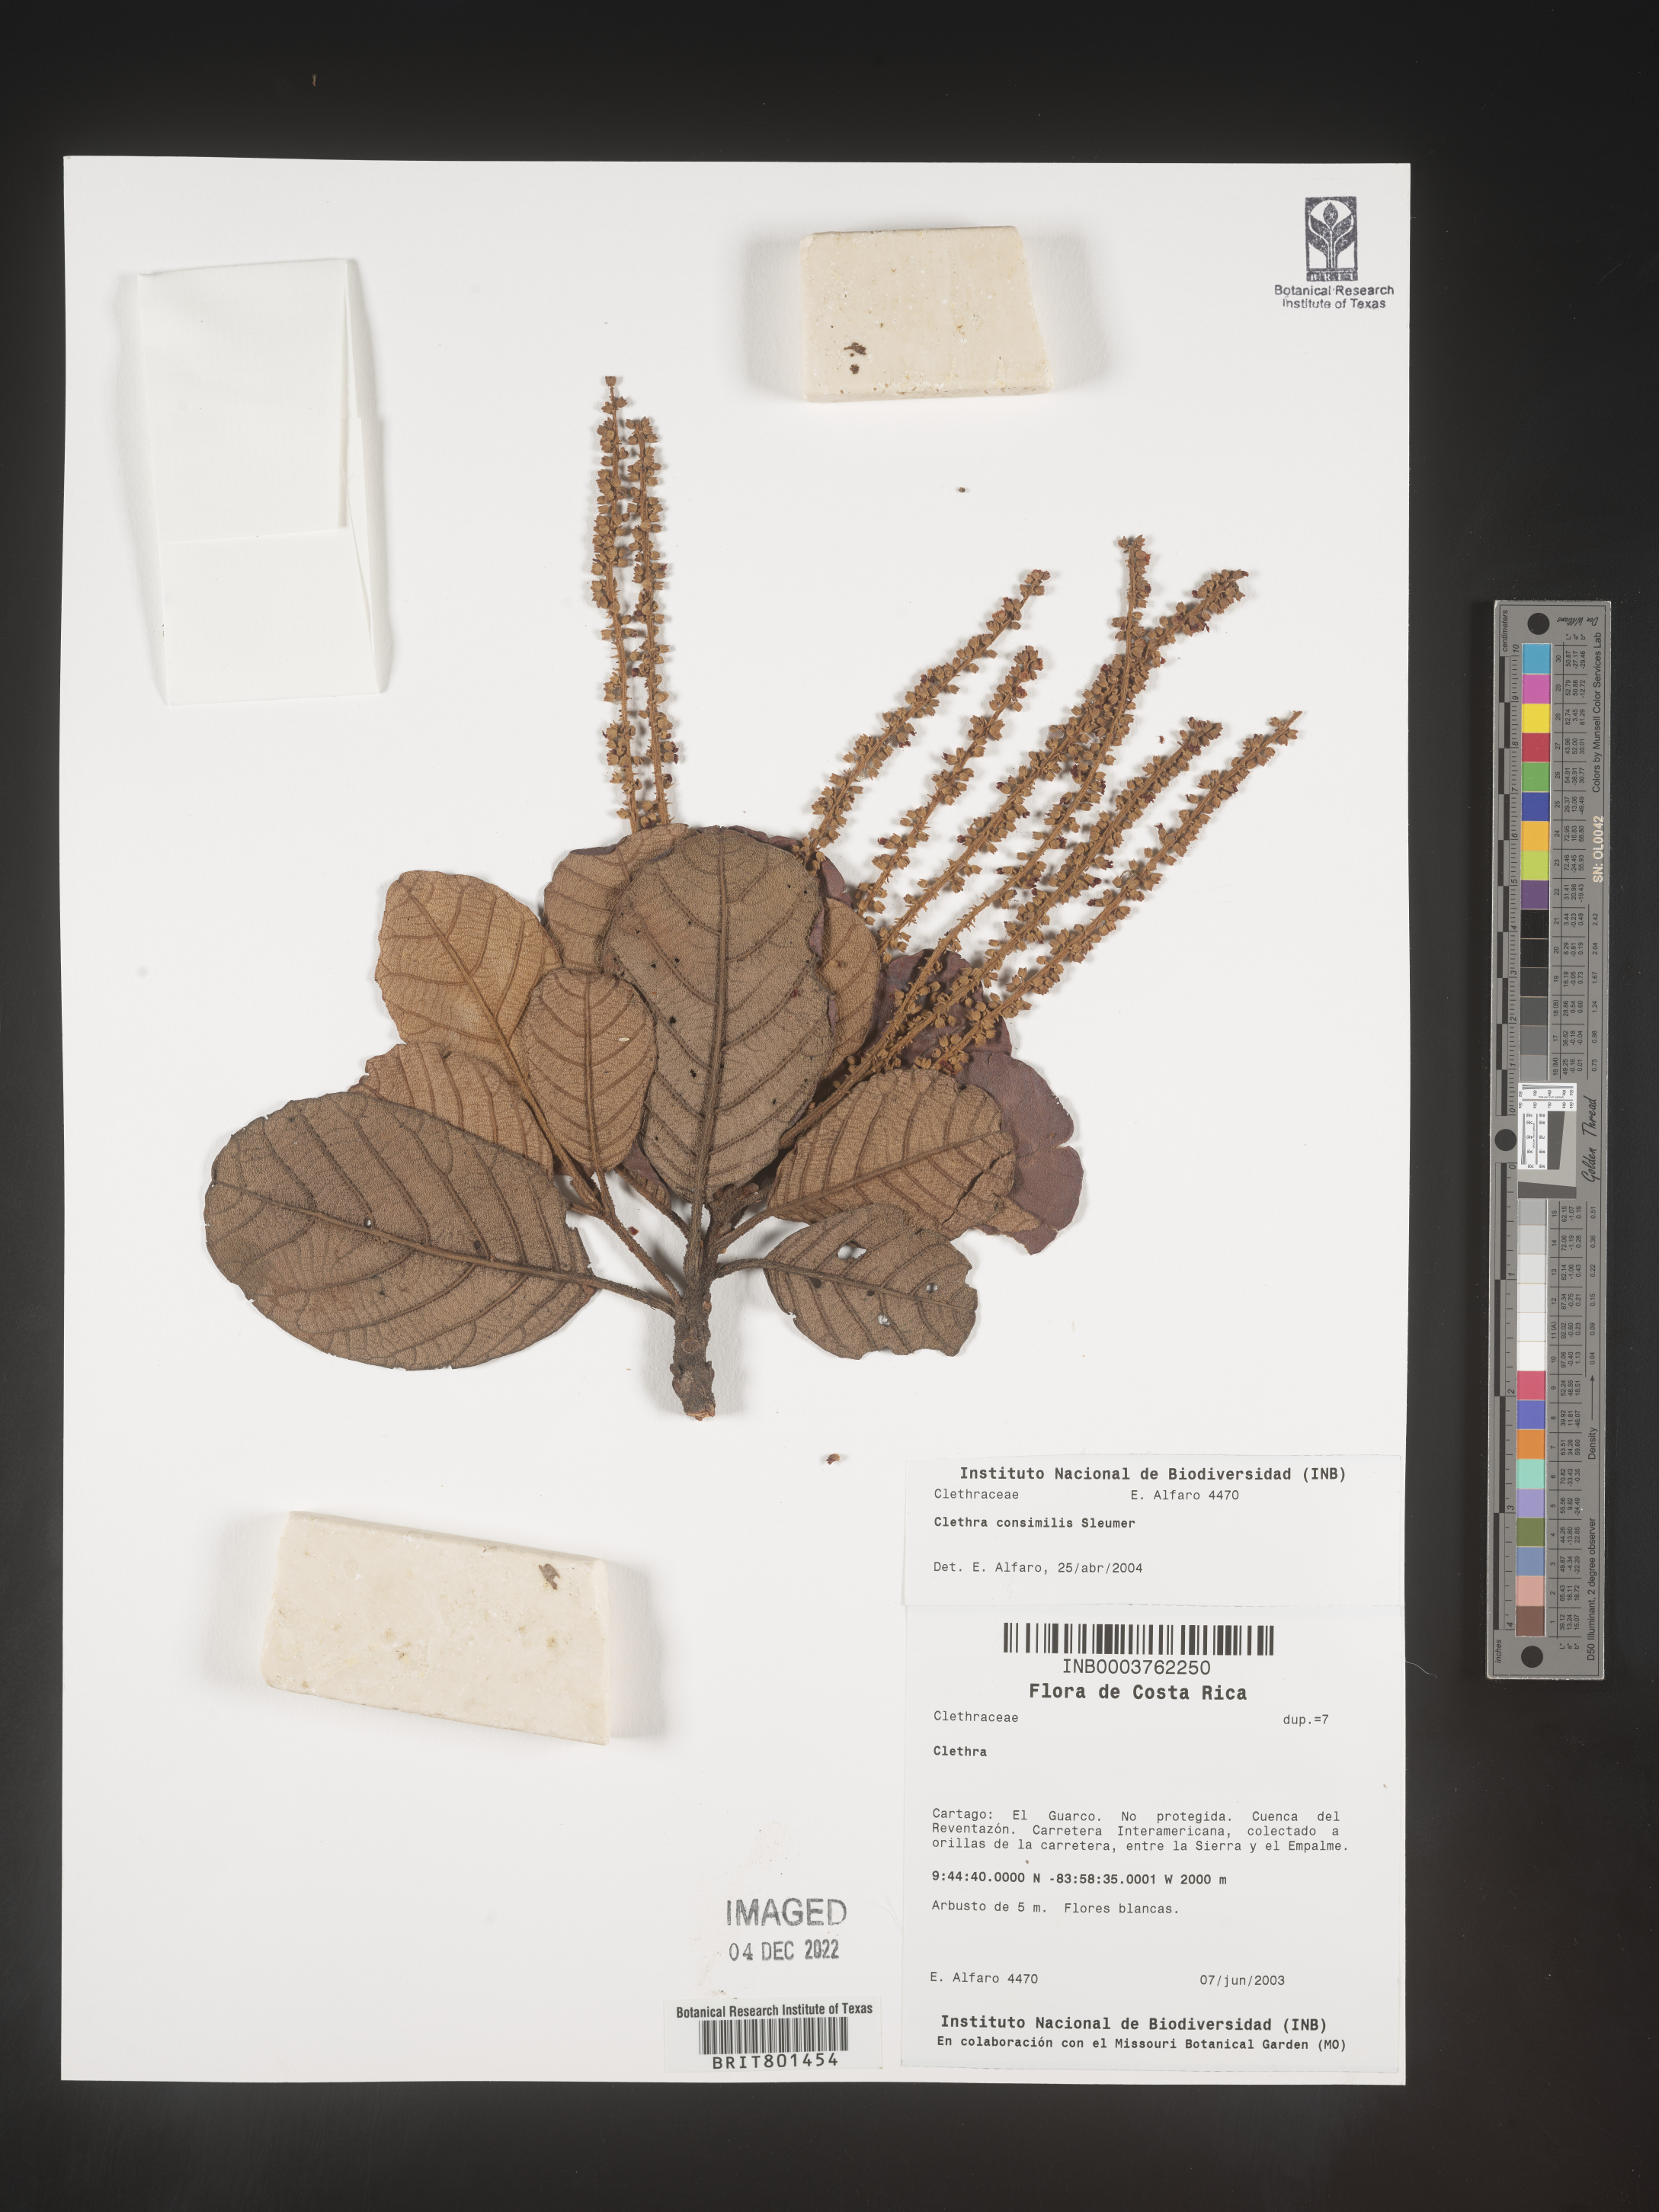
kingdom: Plantae
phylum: Tracheophyta
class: Magnoliopsida
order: Ericales
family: Clethraceae
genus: Clethra
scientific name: Clethra
